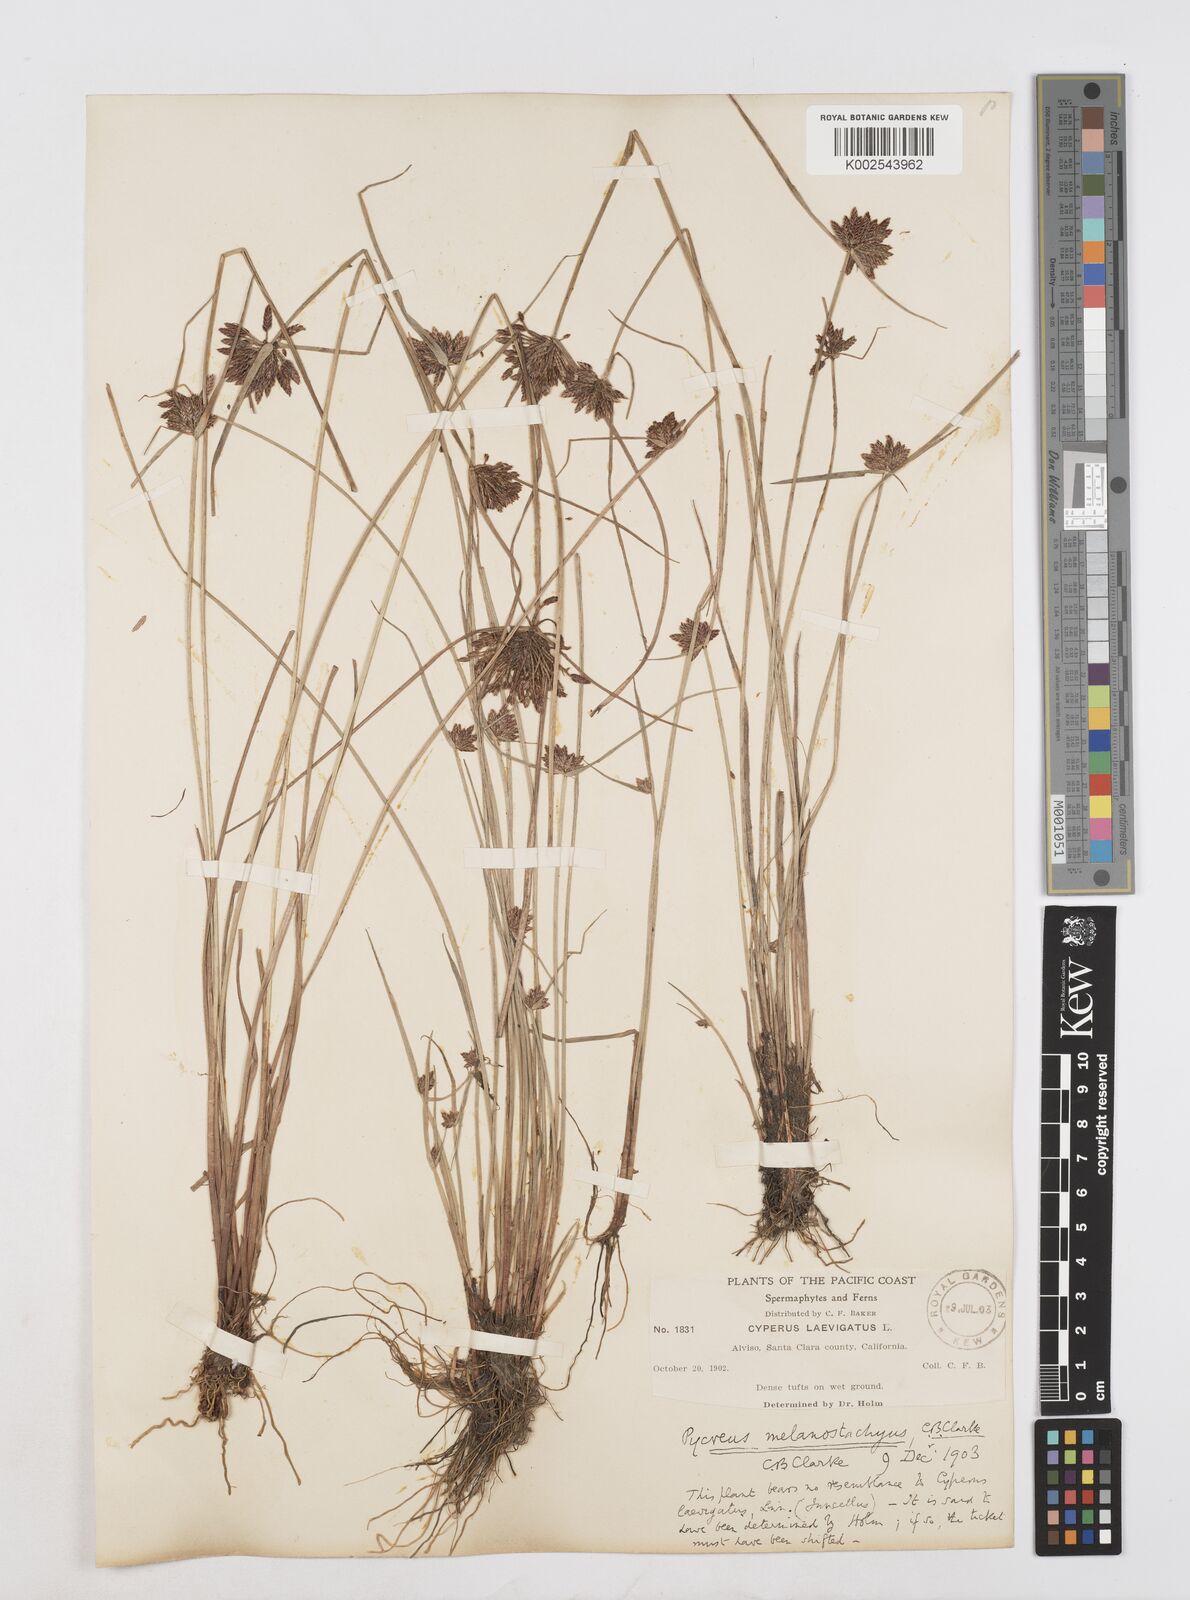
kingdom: Plantae
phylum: Tracheophyta
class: Liliopsida
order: Poales
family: Cyperaceae
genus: Cyperus
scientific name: Cyperus melanostachyus
